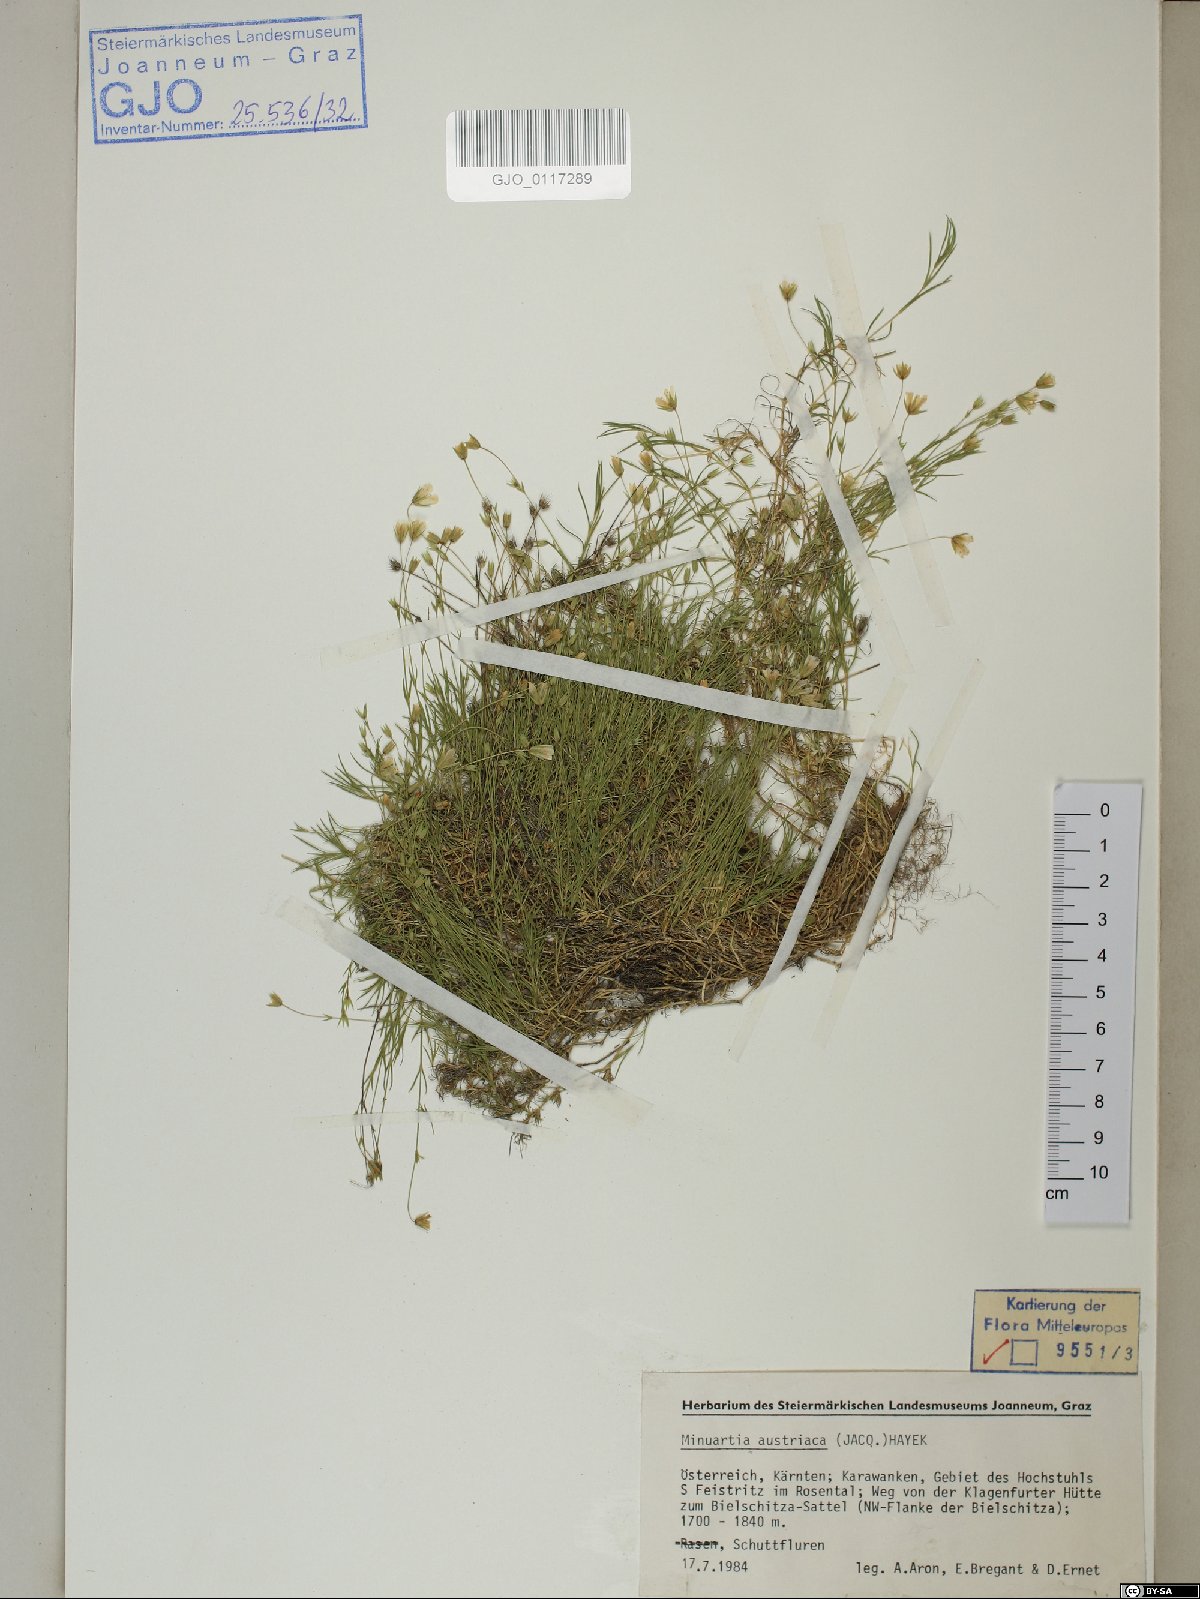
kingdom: Plantae
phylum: Tracheophyta
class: Magnoliopsida
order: Caryophyllales
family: Caryophyllaceae
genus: Sabulina
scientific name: Sabulina austriaca
